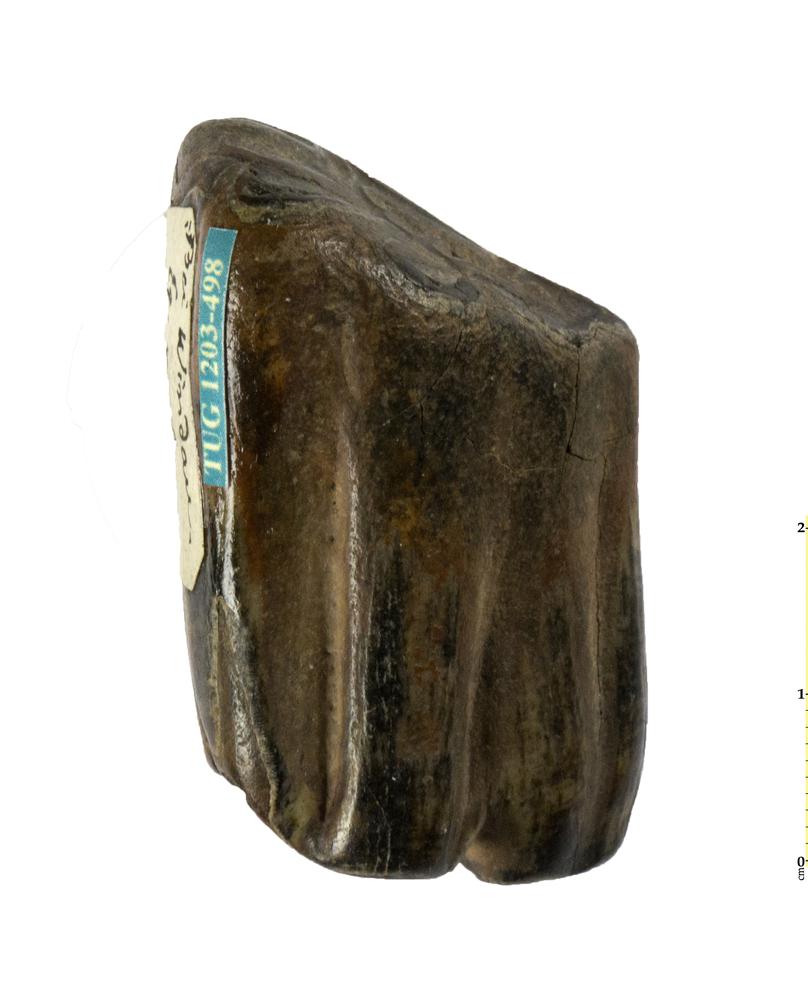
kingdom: Animalia
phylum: Chordata
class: Mammalia
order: Perissodactyla
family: Equidae
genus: Equus
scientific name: Equus
